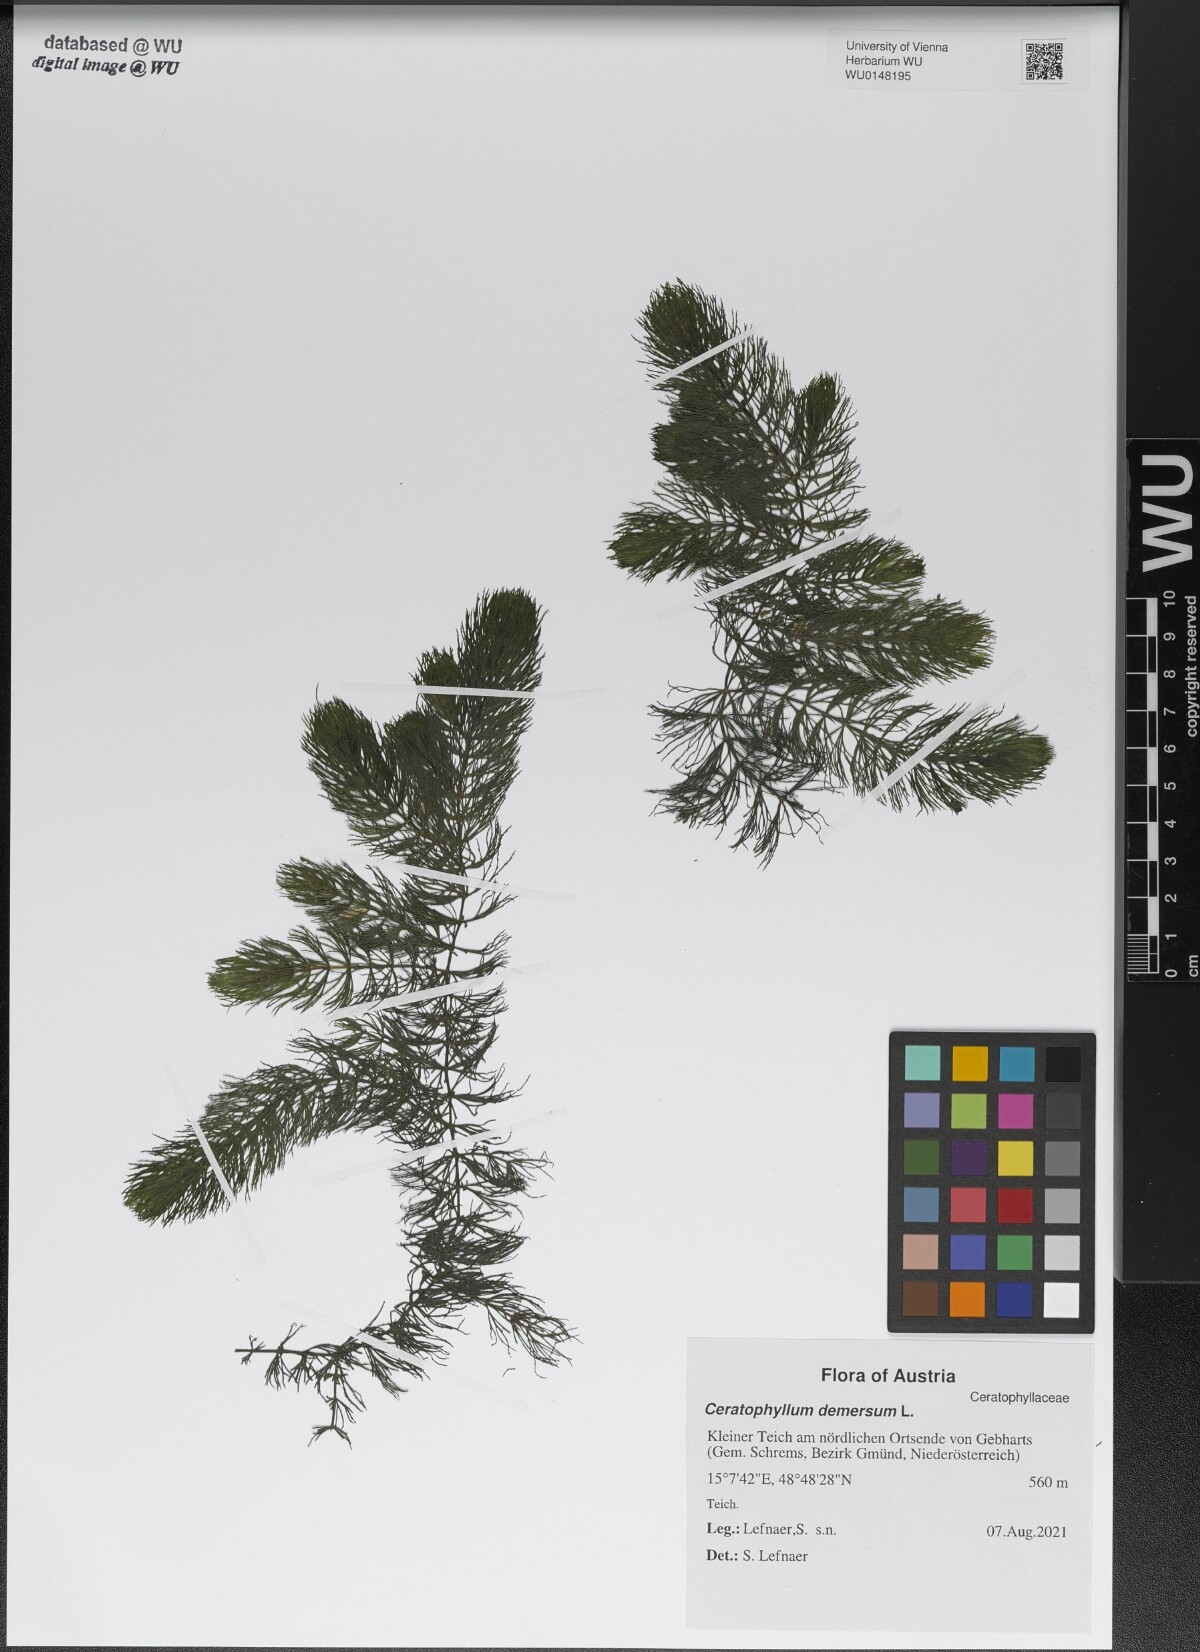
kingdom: Plantae
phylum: Tracheophyta
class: Magnoliopsida
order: Ceratophyllales
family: Ceratophyllaceae
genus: Ceratophyllum
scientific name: Ceratophyllum demersum
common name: Rigid hornwort
